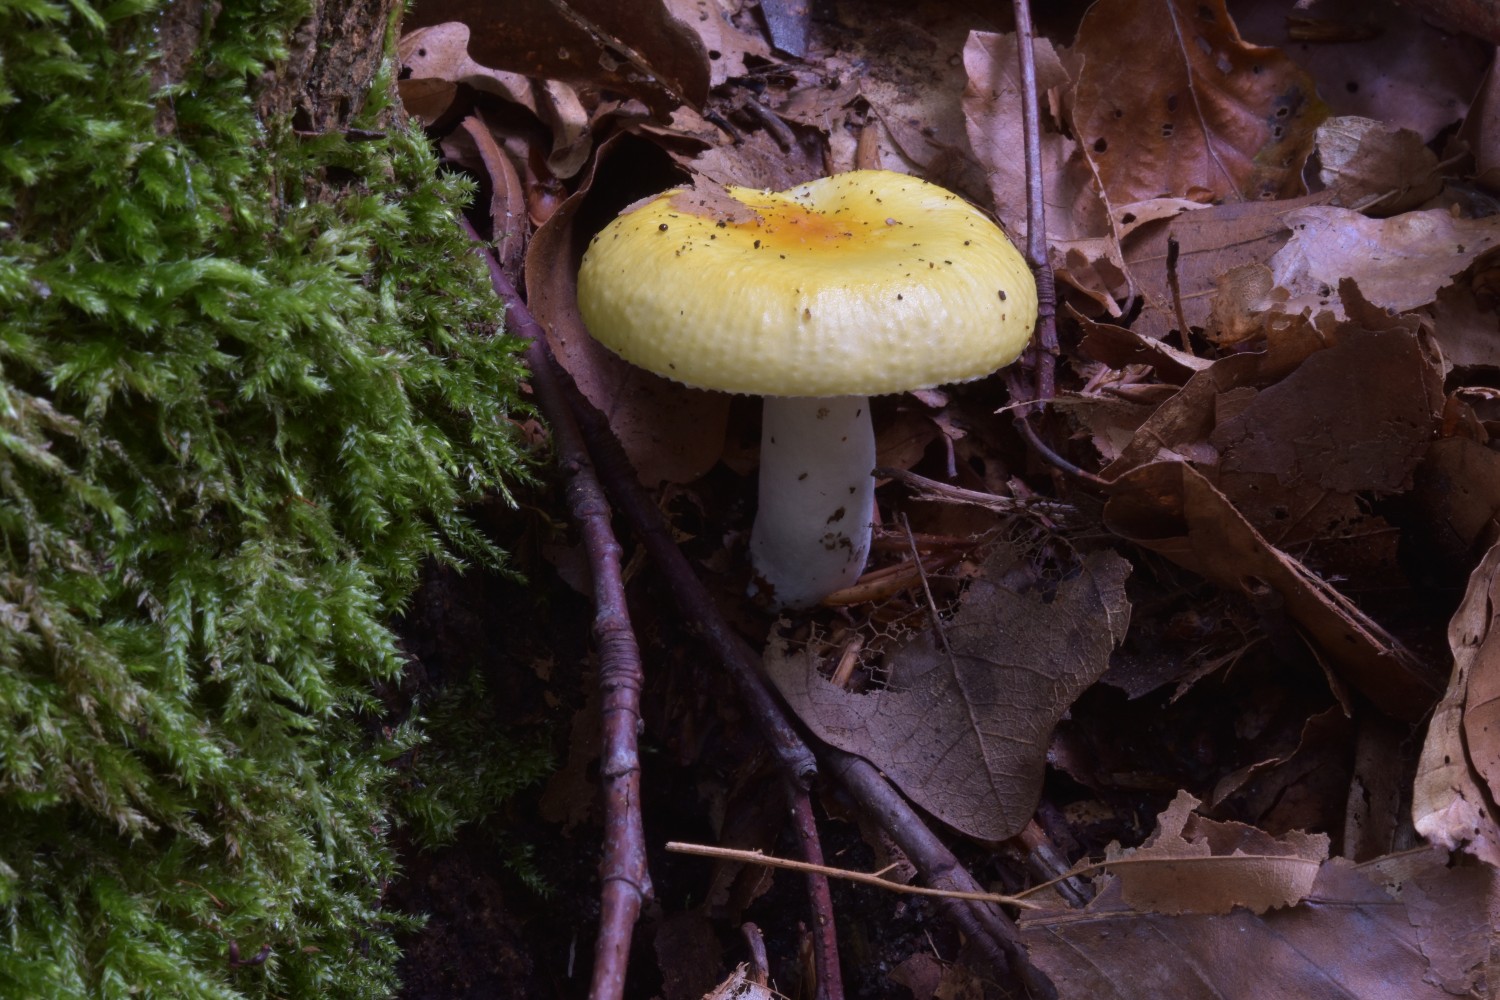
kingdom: Fungi
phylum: Basidiomycota
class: Agaricomycetes
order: Russulales
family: Russulaceae
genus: Russula
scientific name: Russula solaris
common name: sol-skørhat
